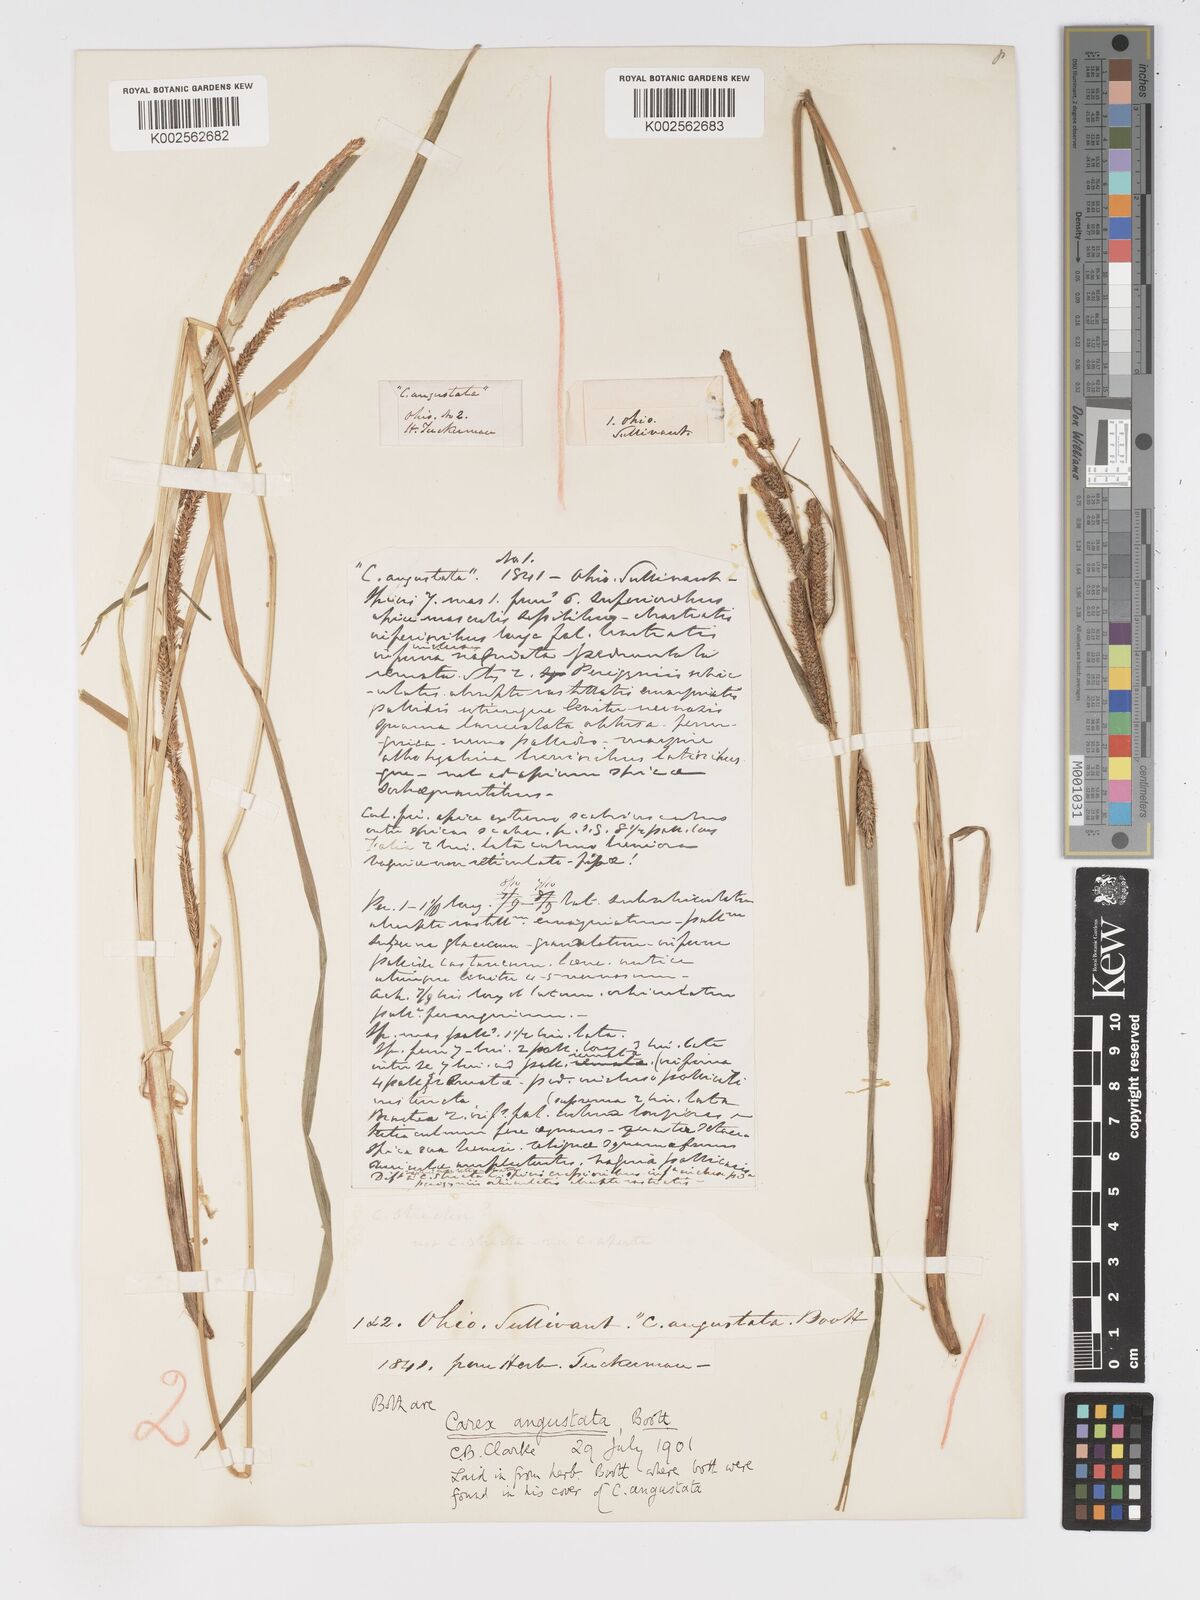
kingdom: Plantae
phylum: Tracheophyta
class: Liliopsida
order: Poales
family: Cyperaceae
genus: Carex
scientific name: Carex stricta
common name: Hummock sedge
